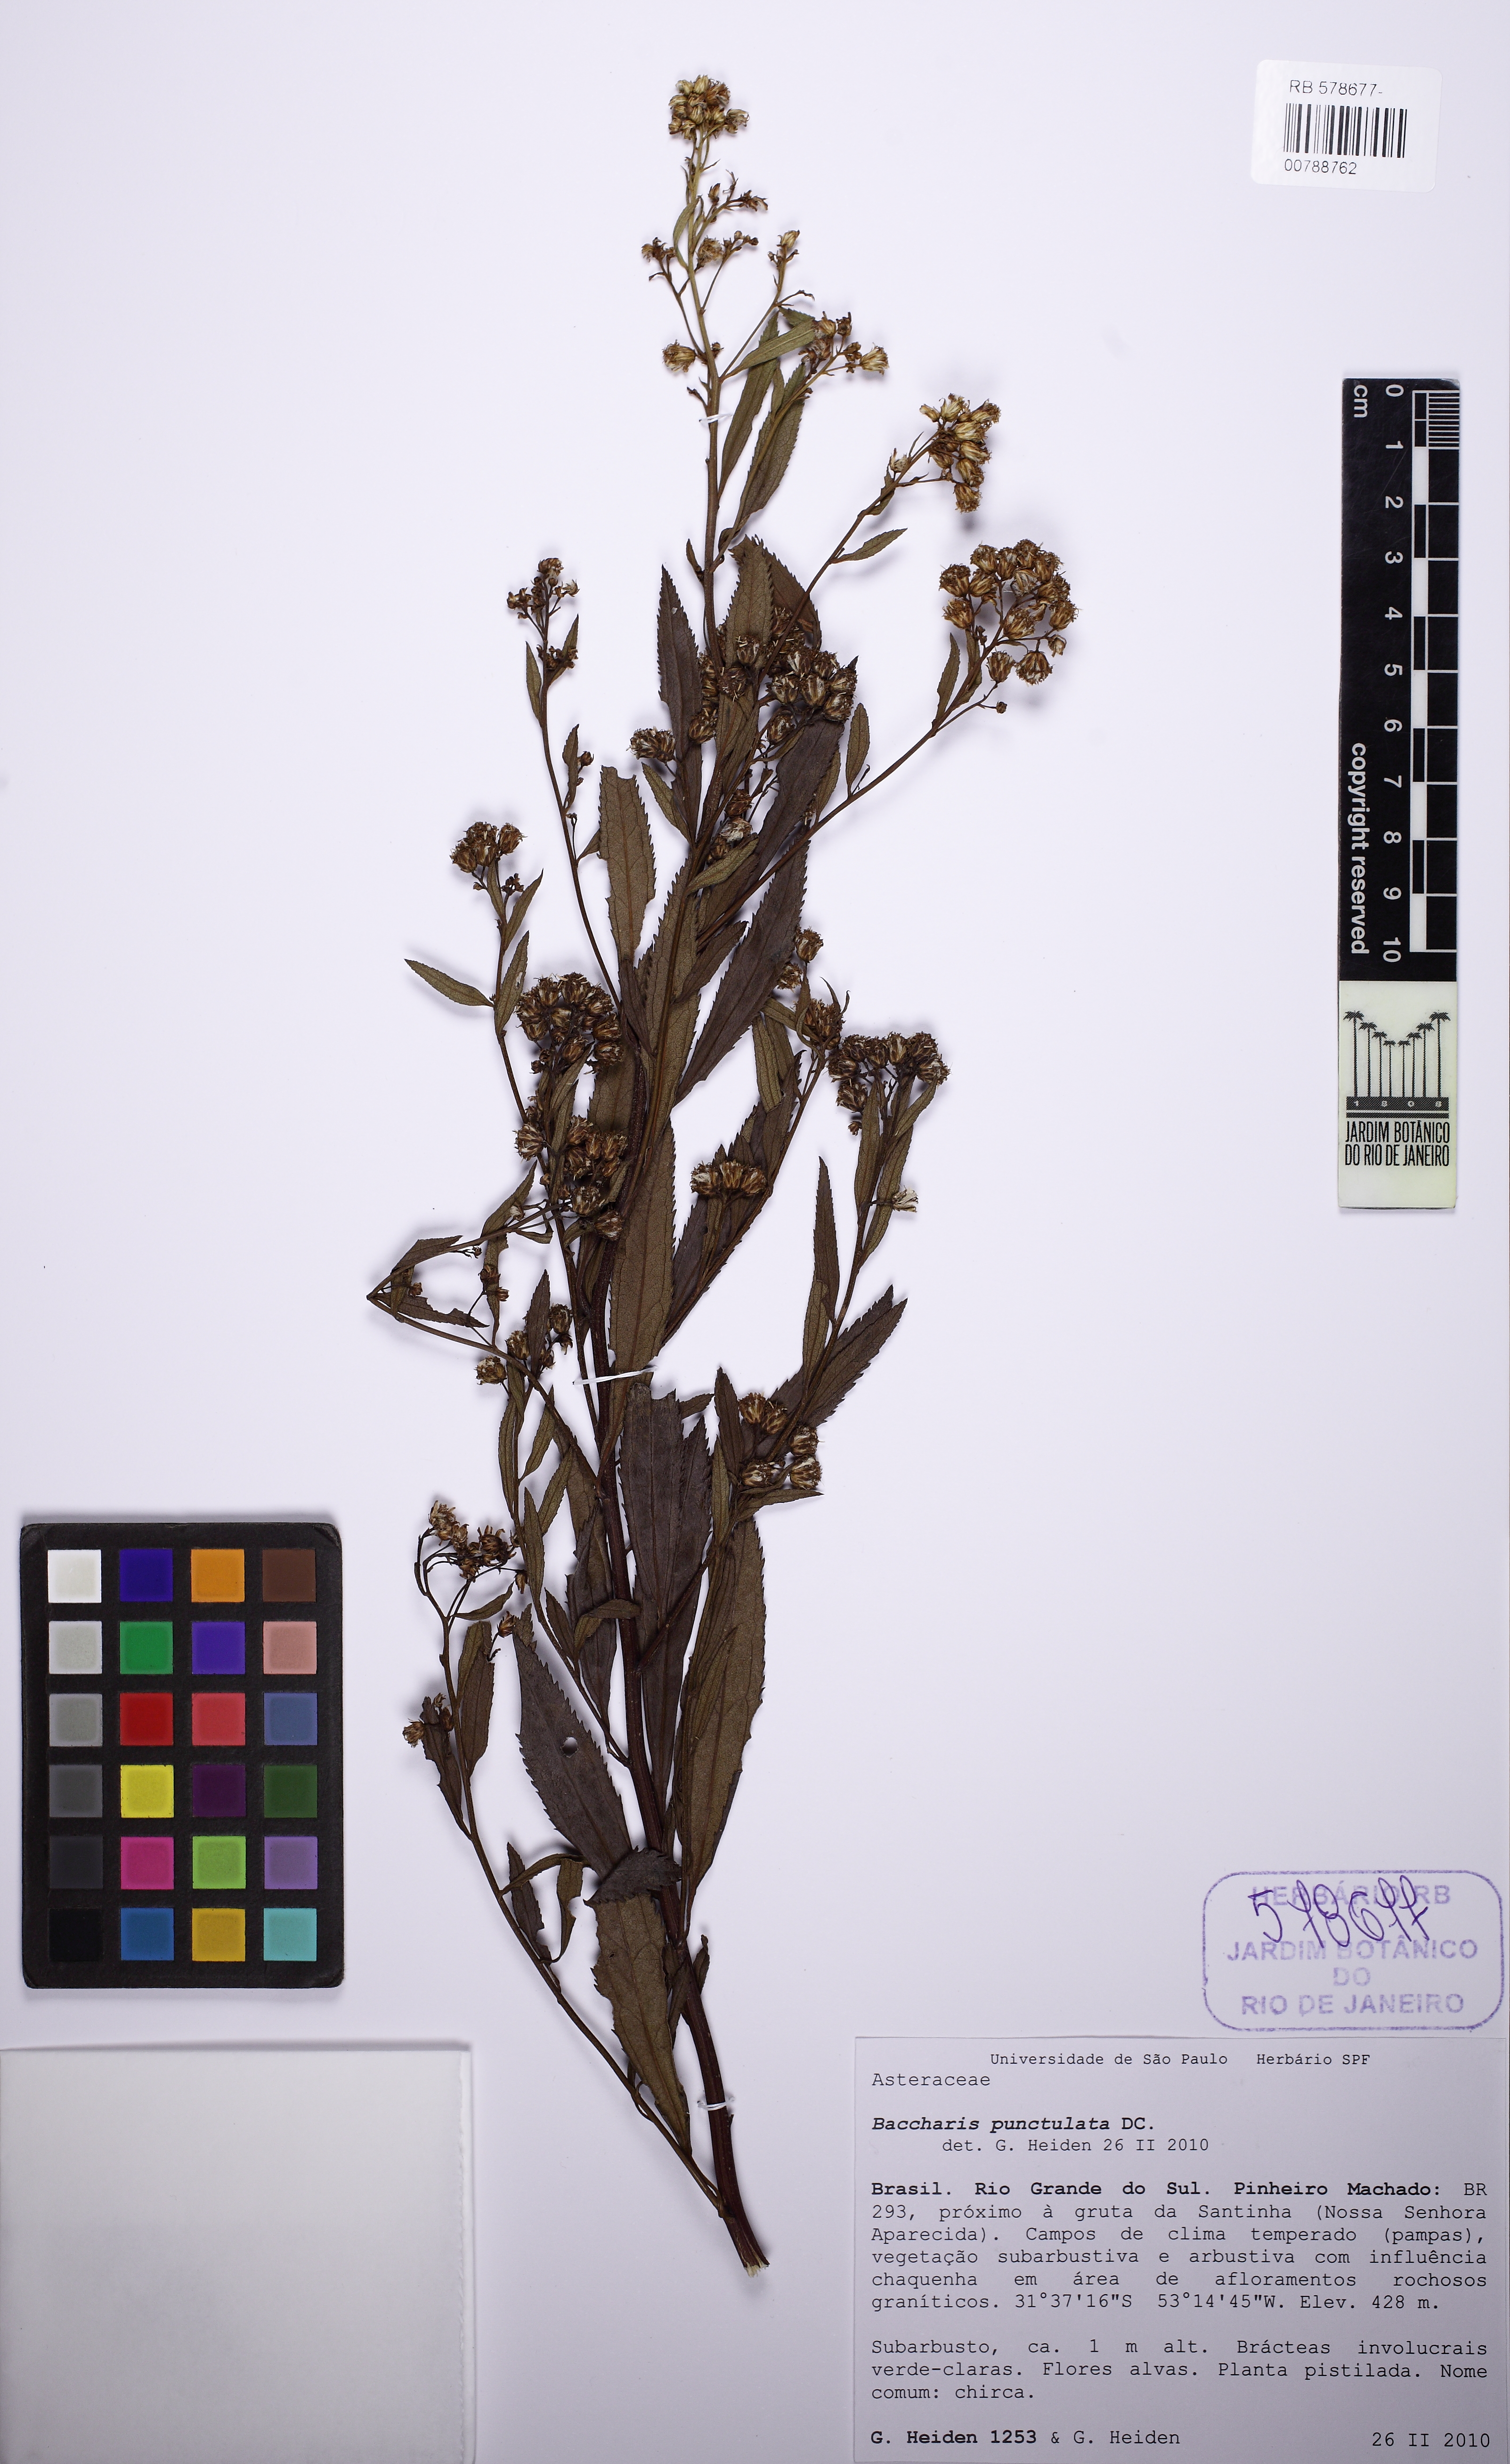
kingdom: Plantae
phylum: Tracheophyta
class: Magnoliopsida
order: Asterales
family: Asteraceae
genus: Baccharis
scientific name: Baccharis punctulata
